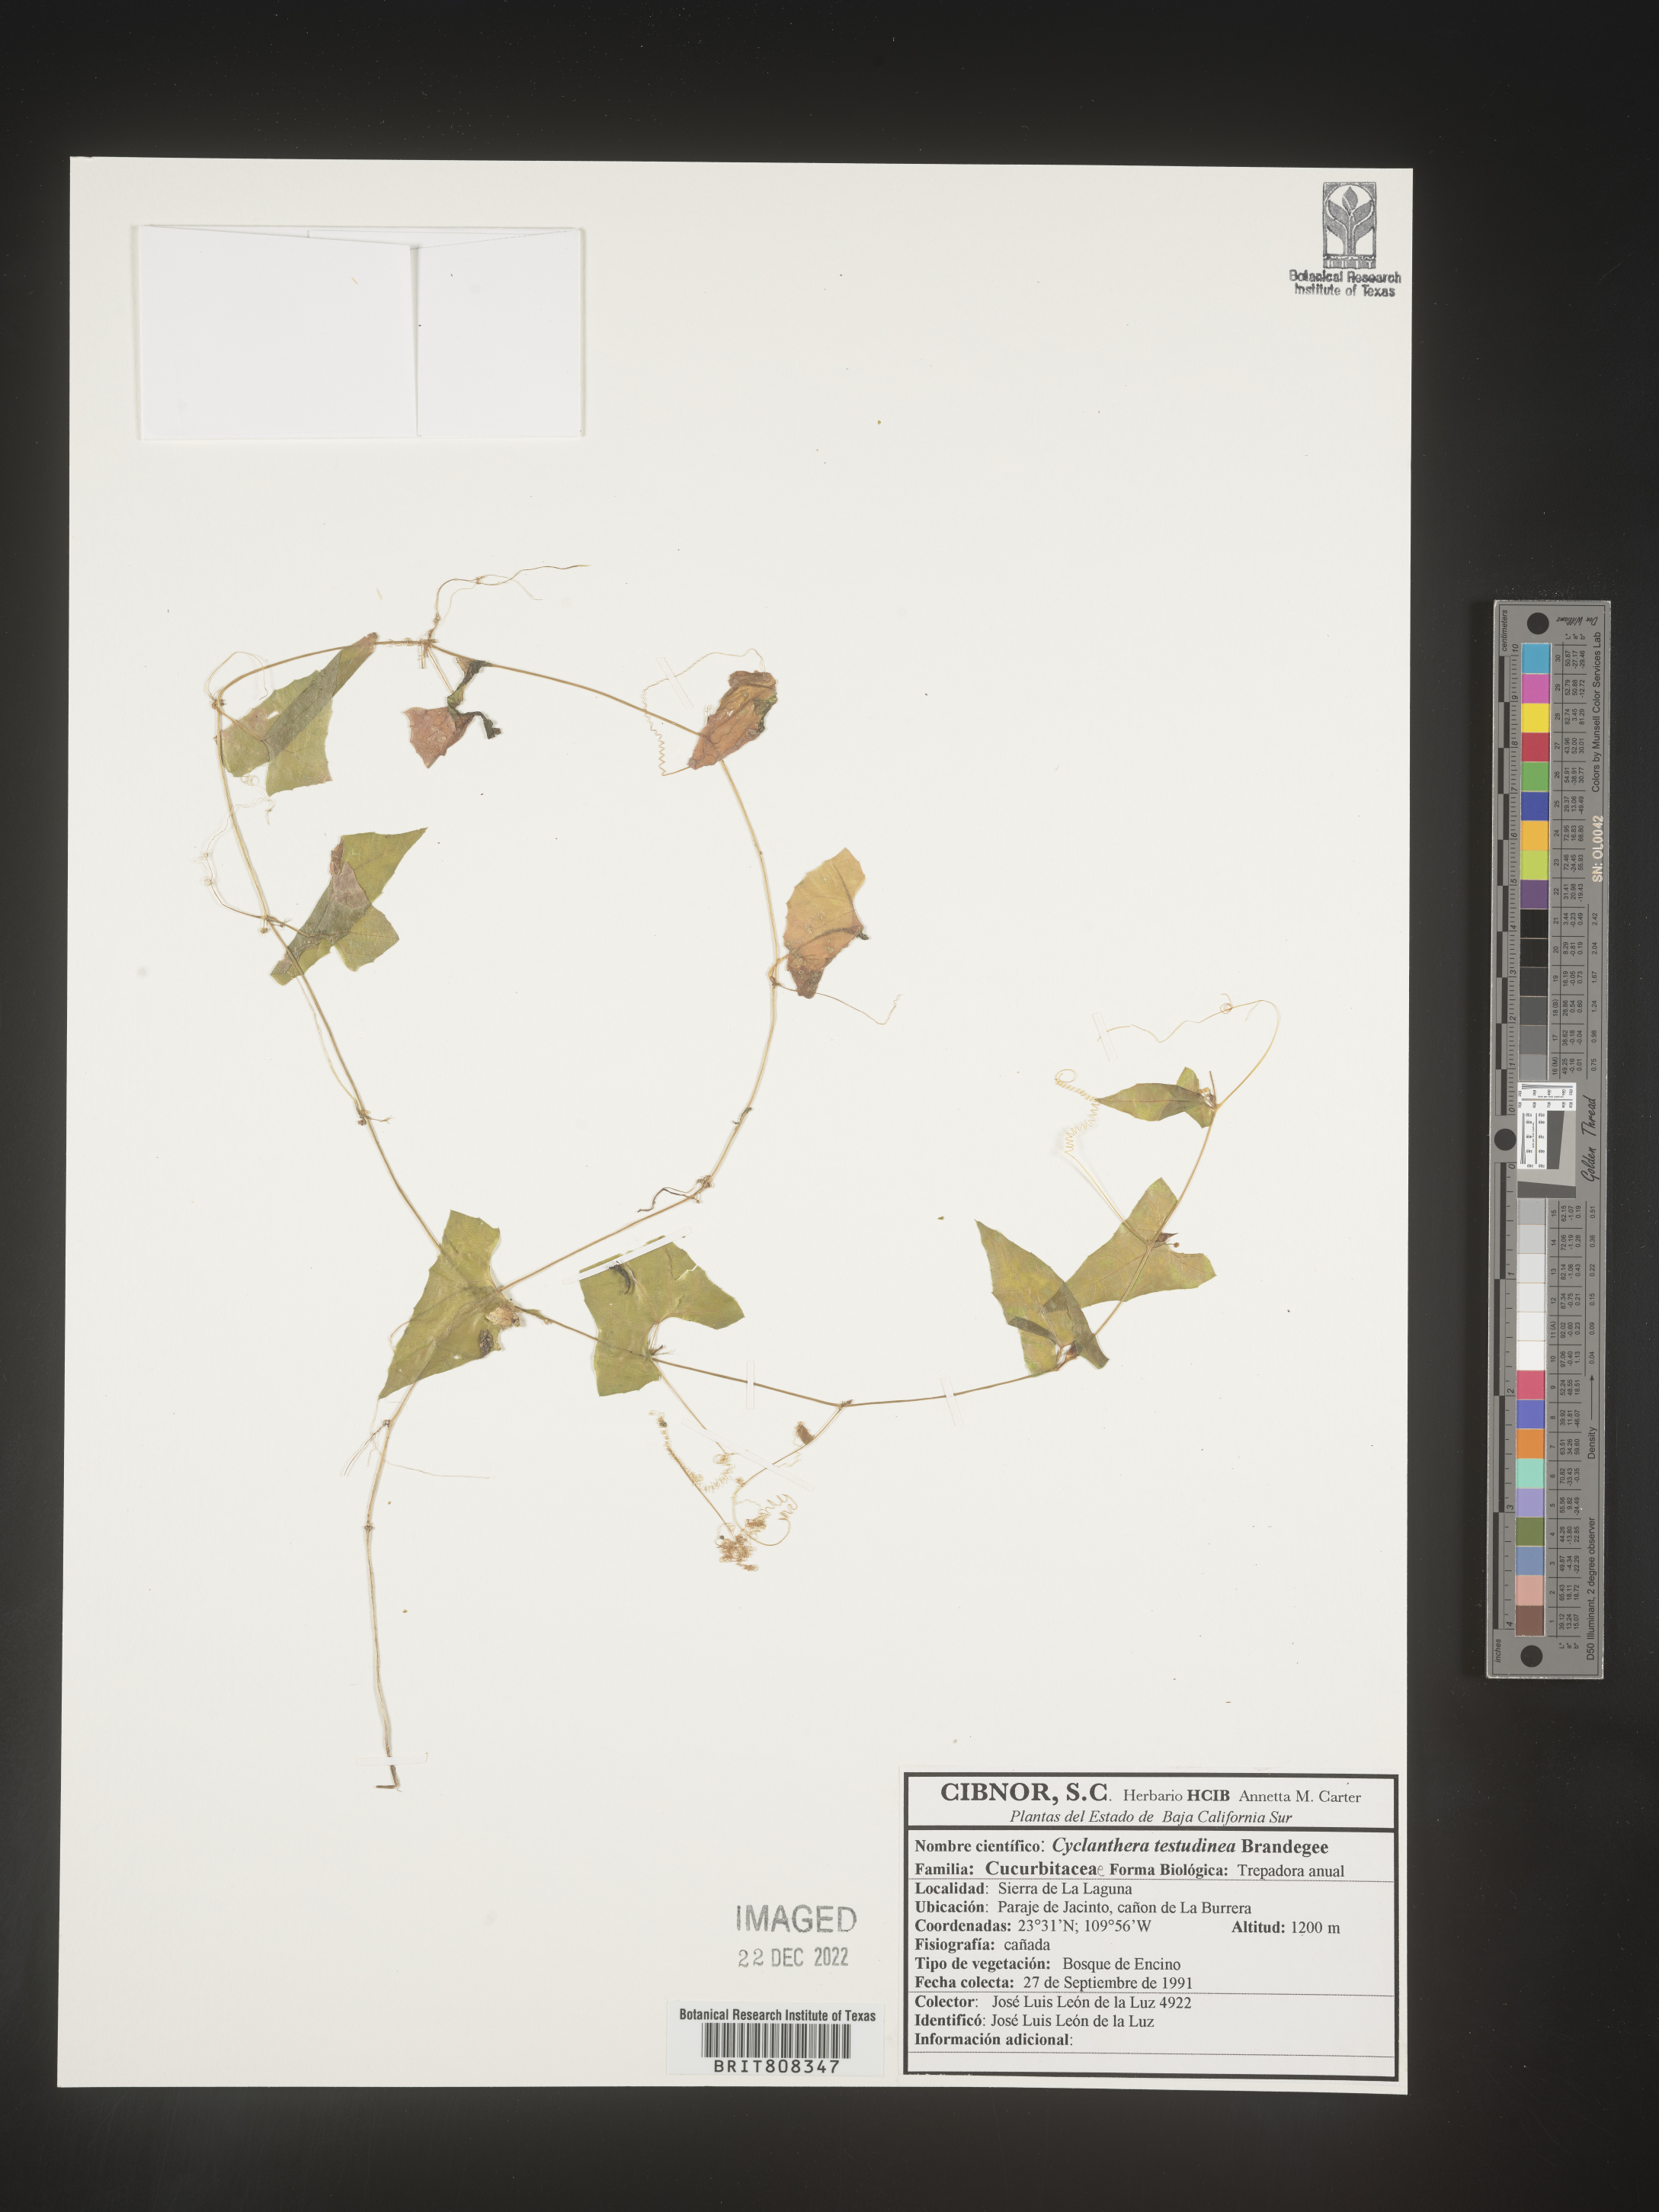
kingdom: Plantae
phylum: Tracheophyta
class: Magnoliopsida
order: Cucurbitales
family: Cucurbitaceae
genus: Cyclanthera
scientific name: Cyclanthera
